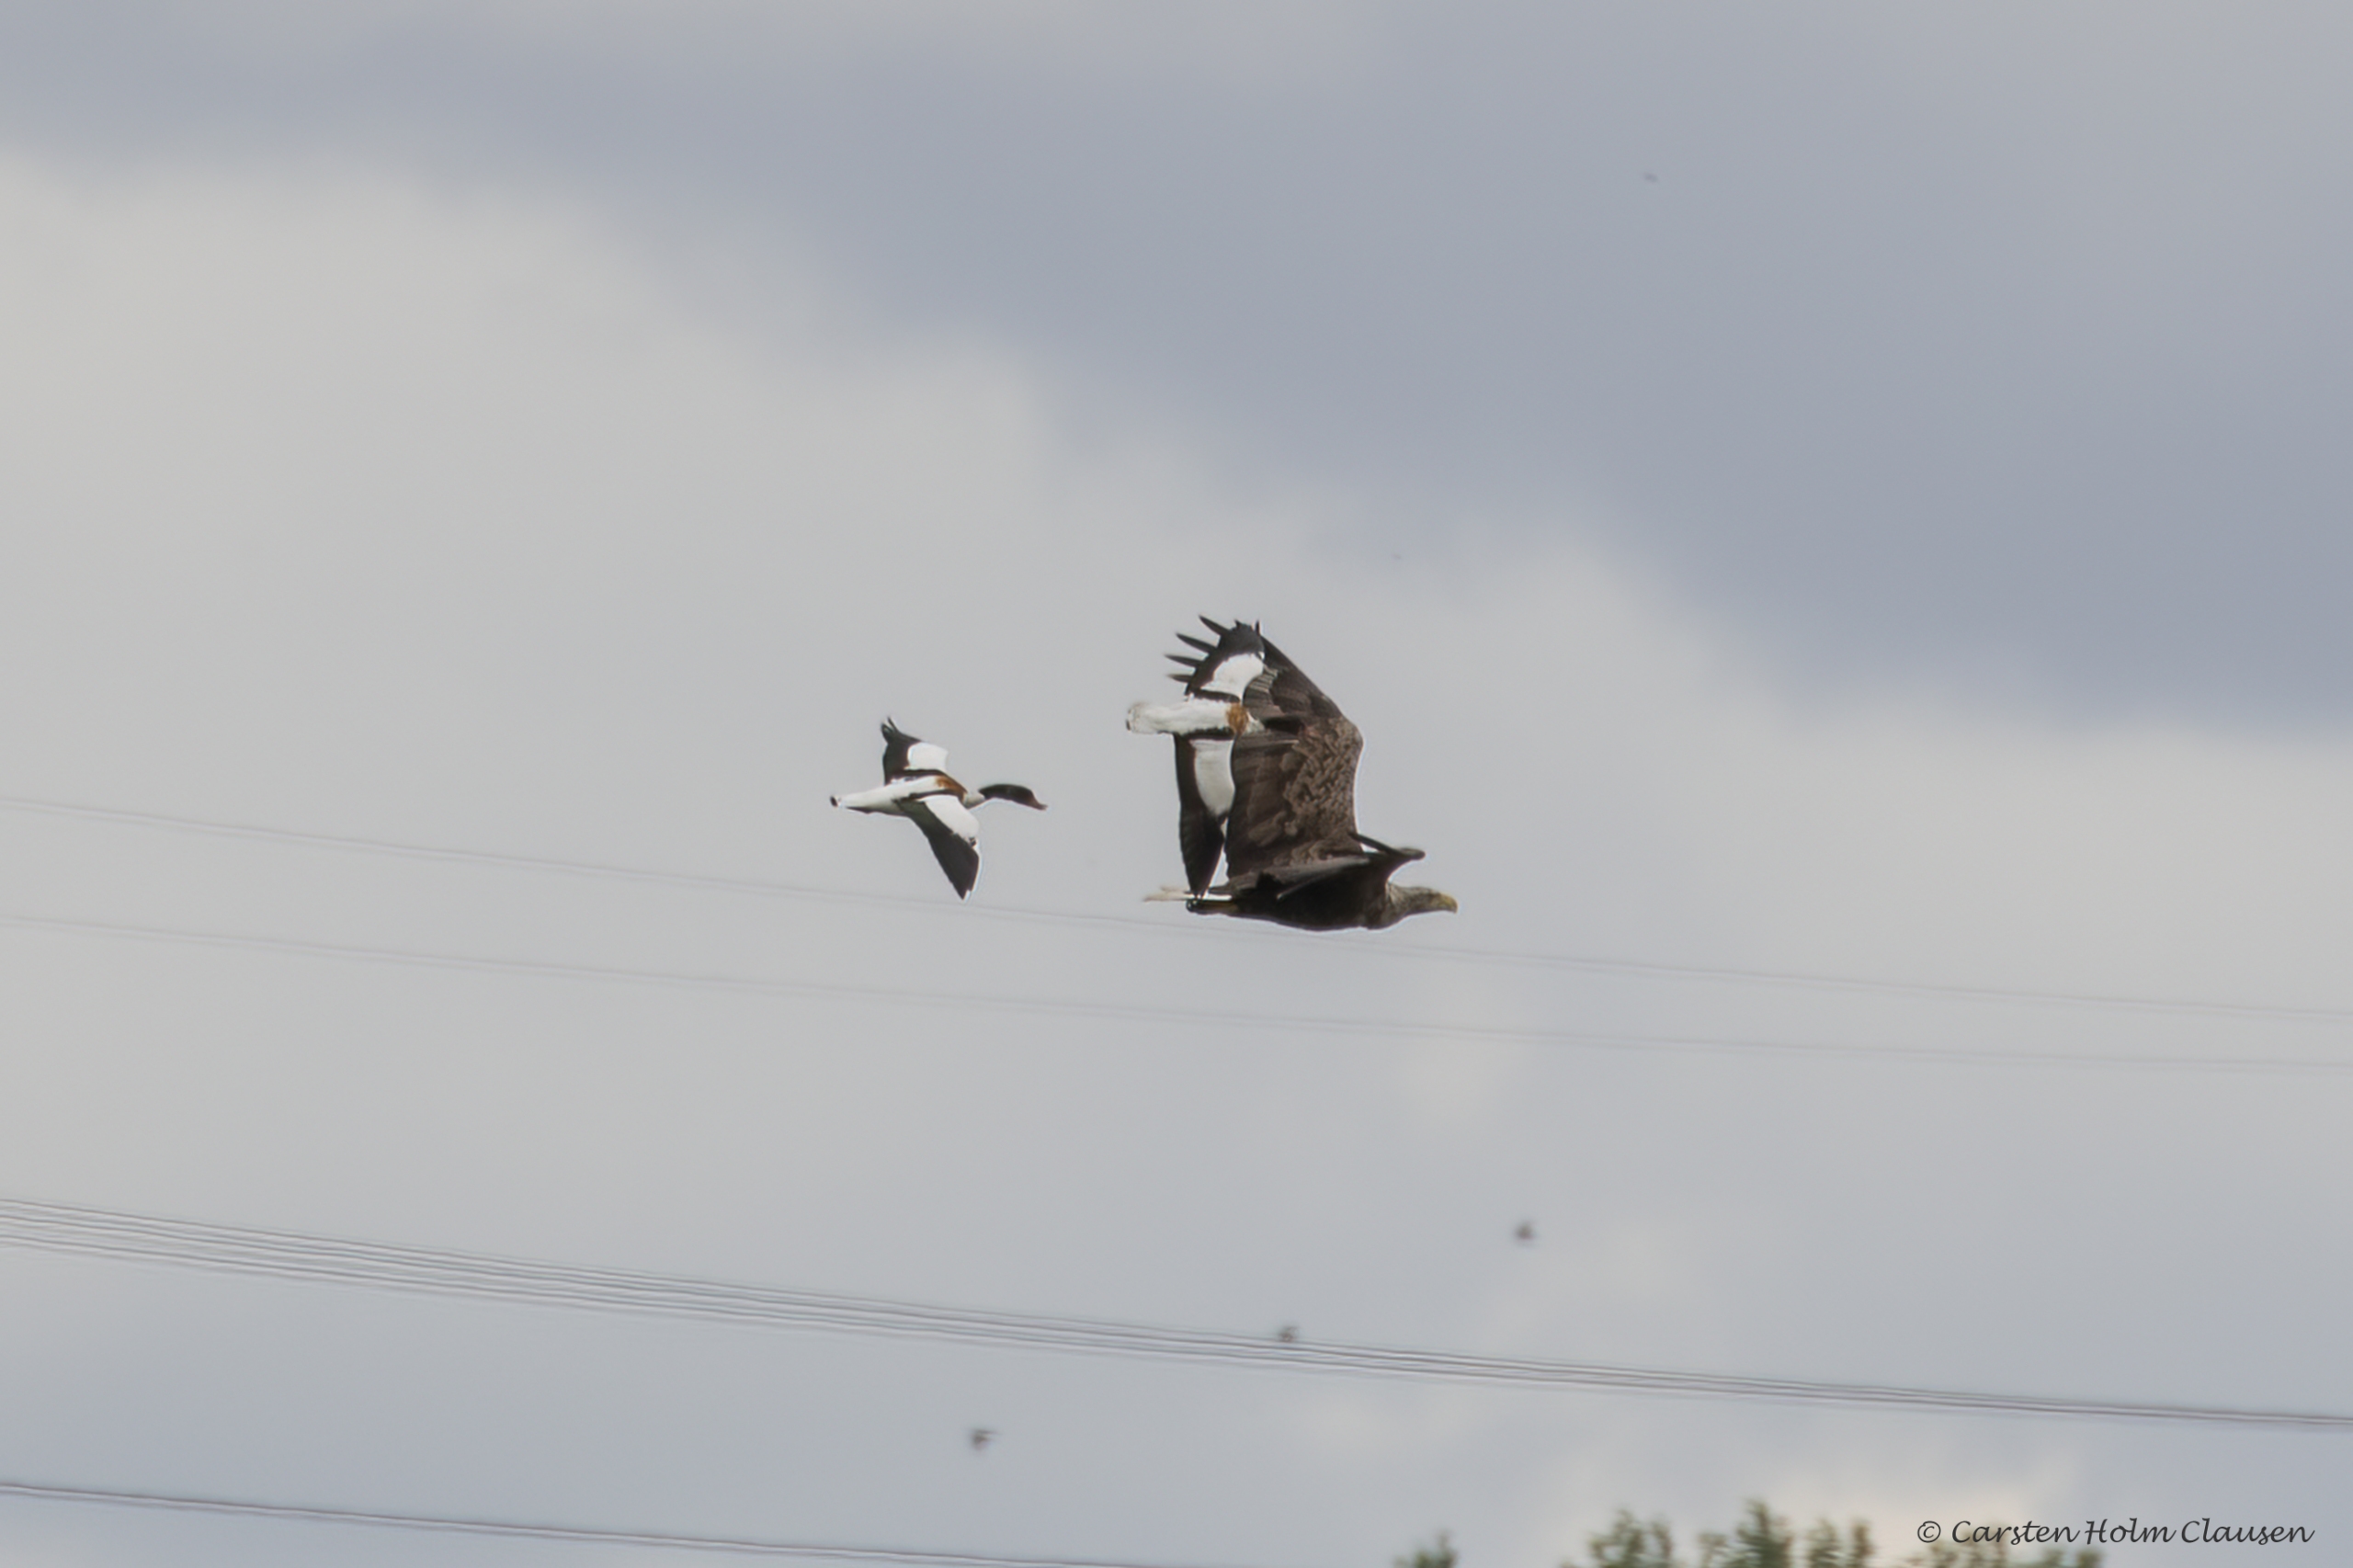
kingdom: Animalia
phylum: Chordata
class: Aves
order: Accipitriformes
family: Accipitridae
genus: Haliaeetus
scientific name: Haliaeetus albicilla
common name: Havørn
